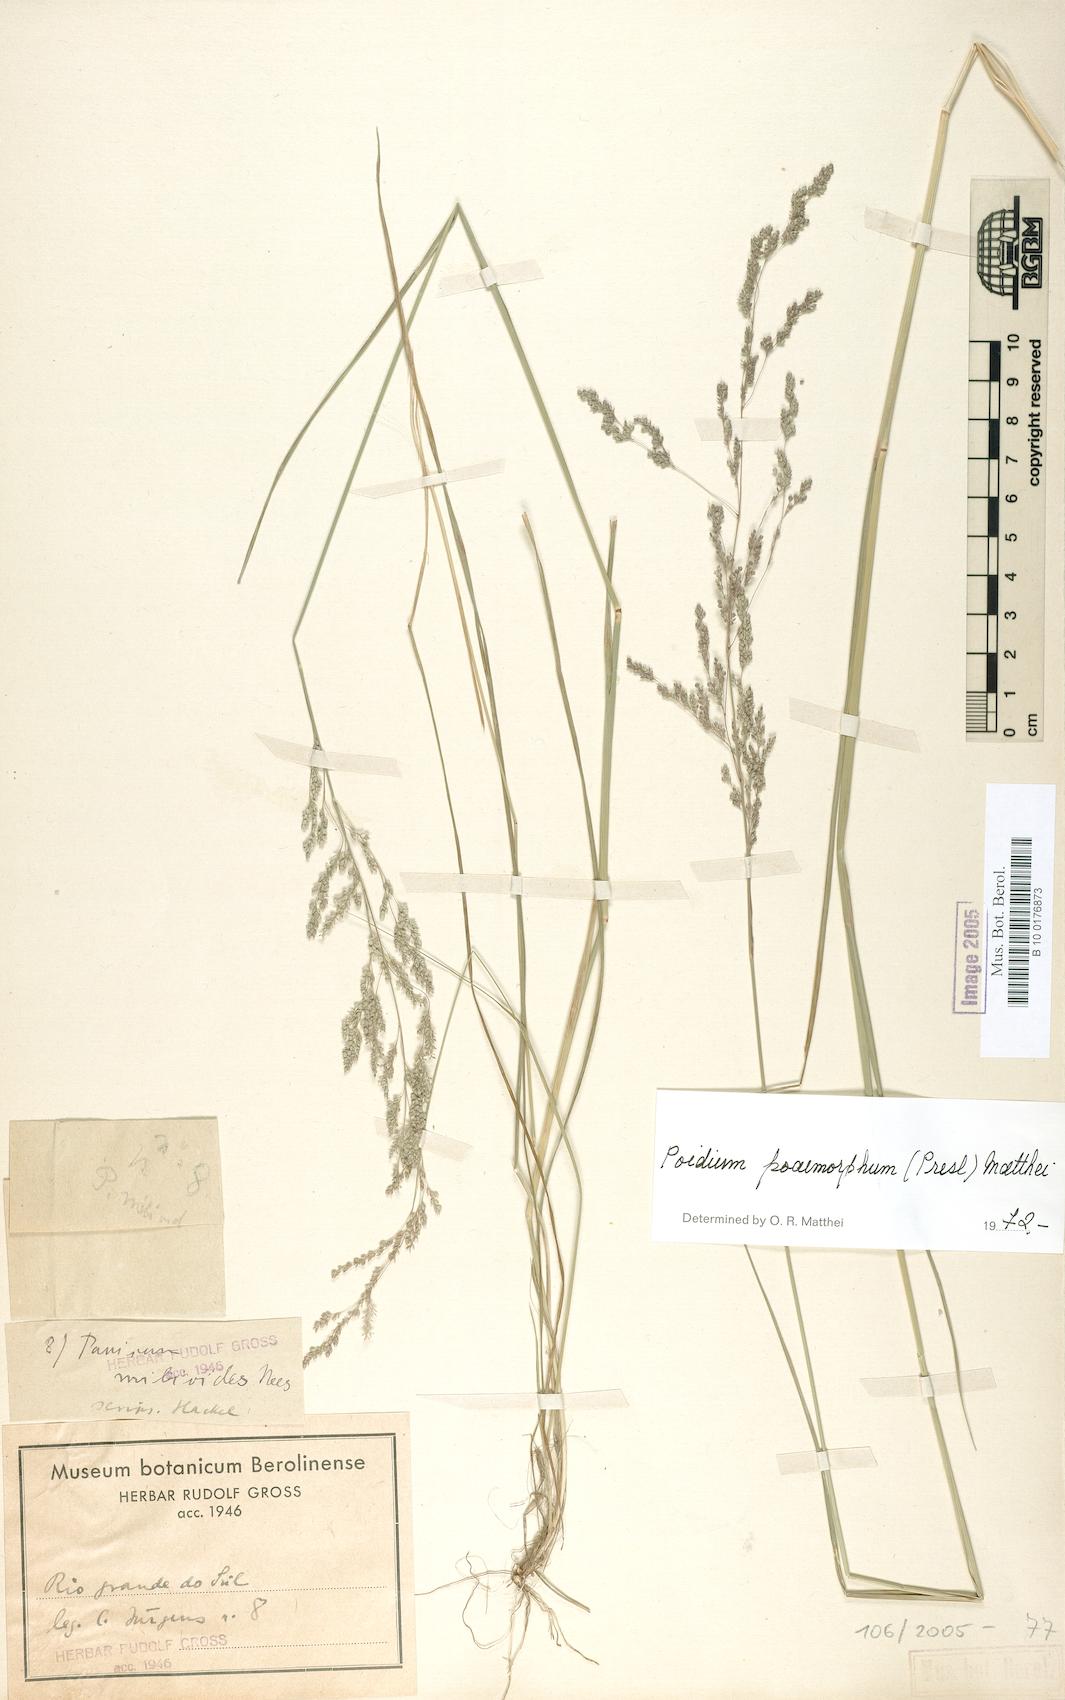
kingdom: Plantae
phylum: Tracheophyta
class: Liliopsida
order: Poales
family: Poaceae
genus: Chascolytrum
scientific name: Chascolytrum poomorphum
